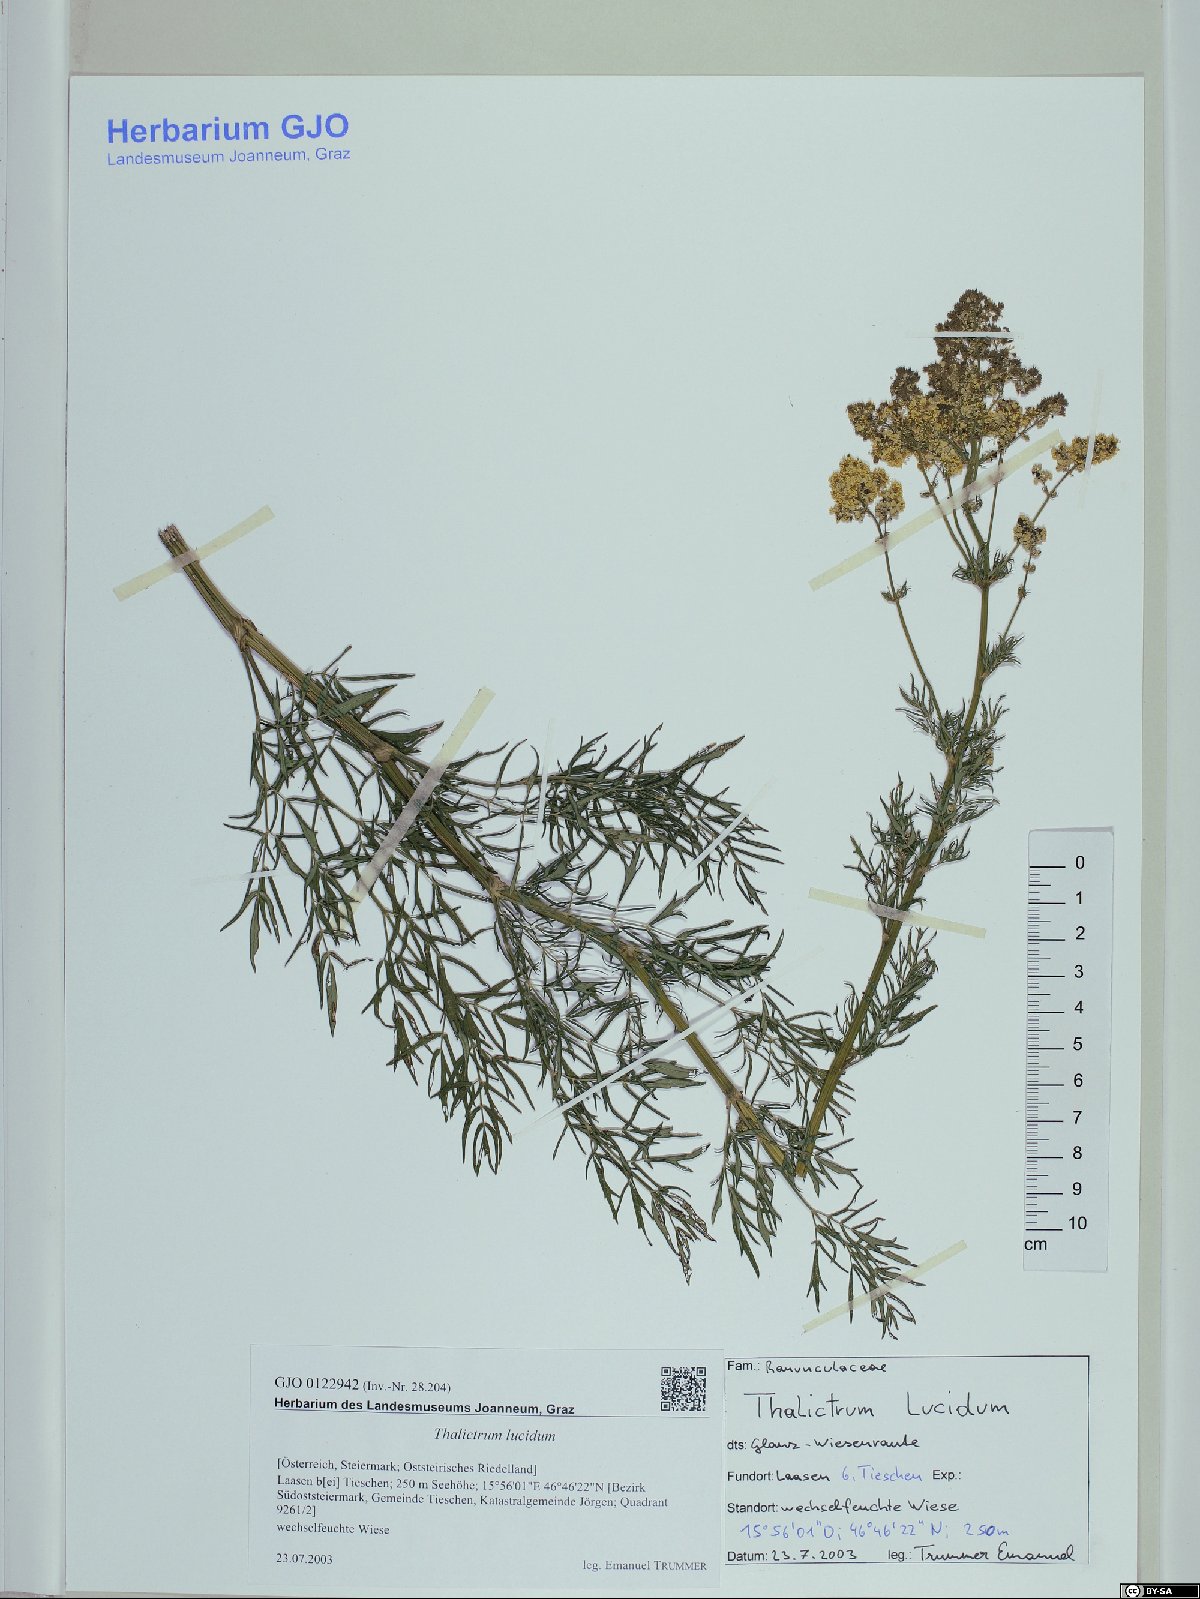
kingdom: Plantae
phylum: Tracheophyta
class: Magnoliopsida
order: Ranunculales
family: Ranunculaceae
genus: Thalictrum
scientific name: Thalictrum lucidum
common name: Shining meadow-rue
